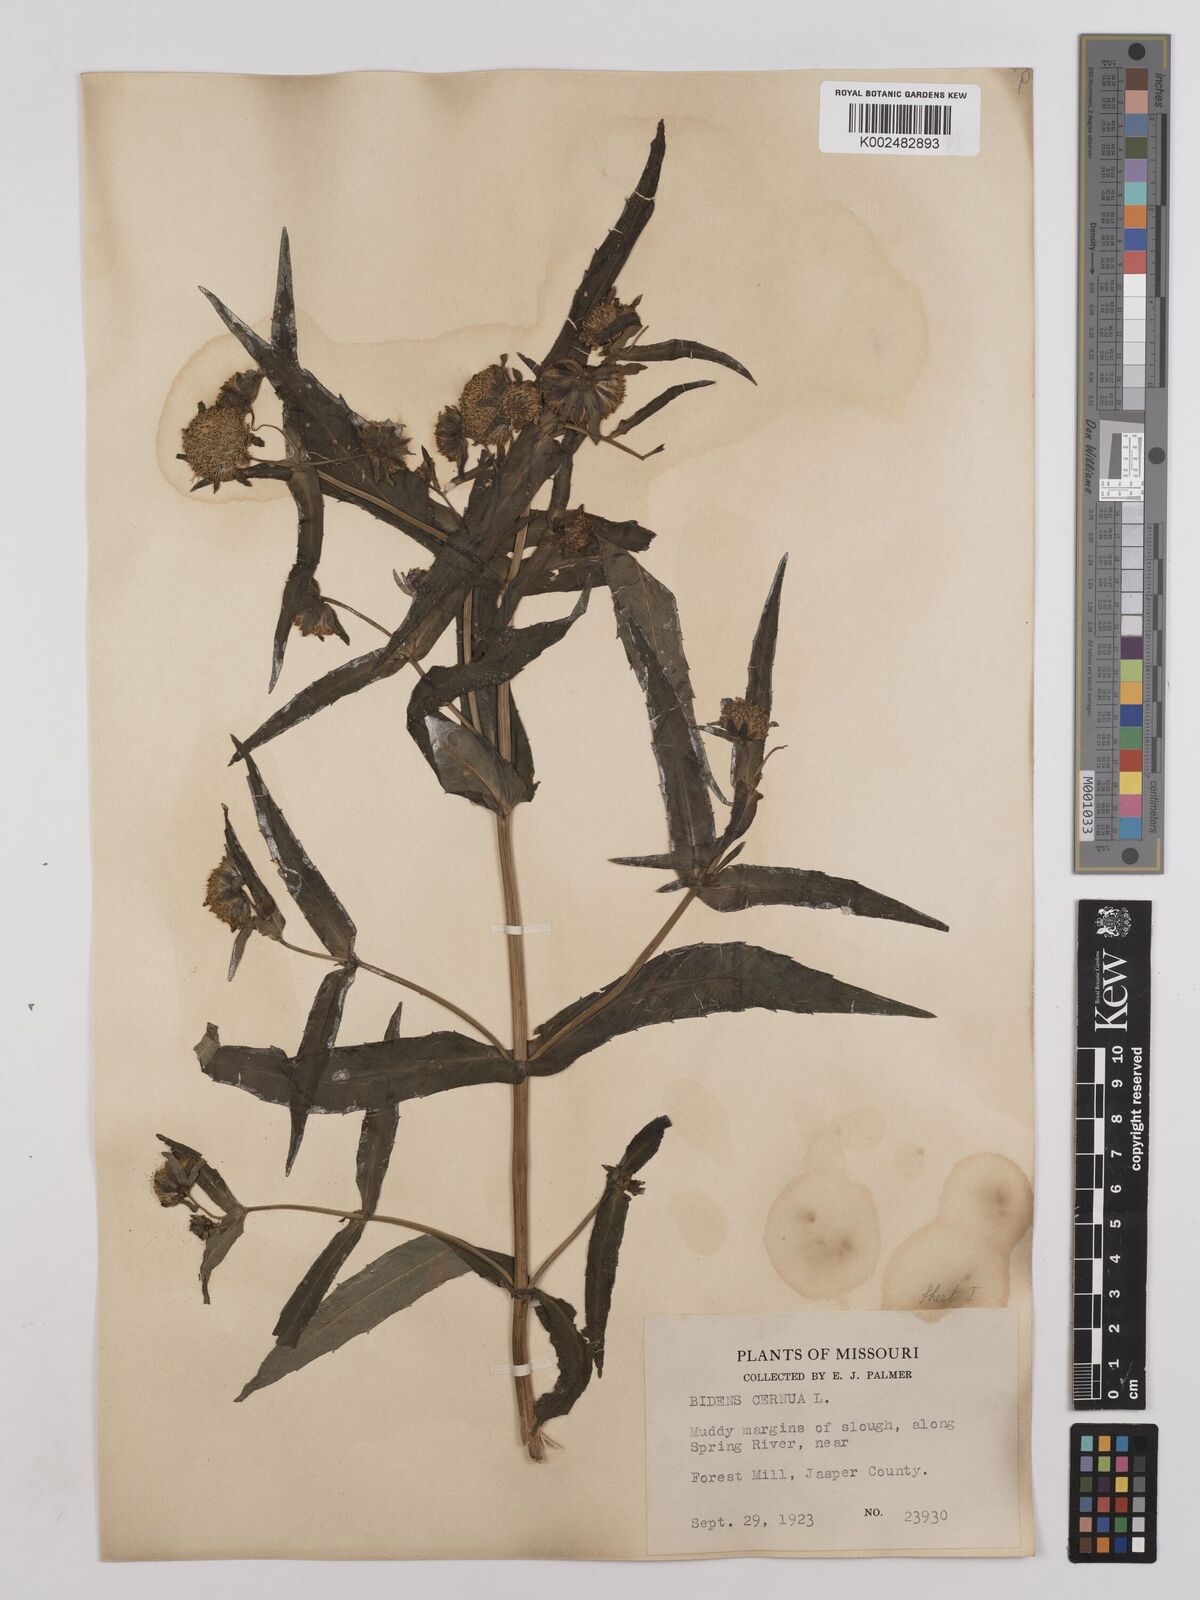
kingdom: Plantae
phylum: Tracheophyta
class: Magnoliopsida
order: Asterales
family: Asteraceae
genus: Bidens
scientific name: Bidens
